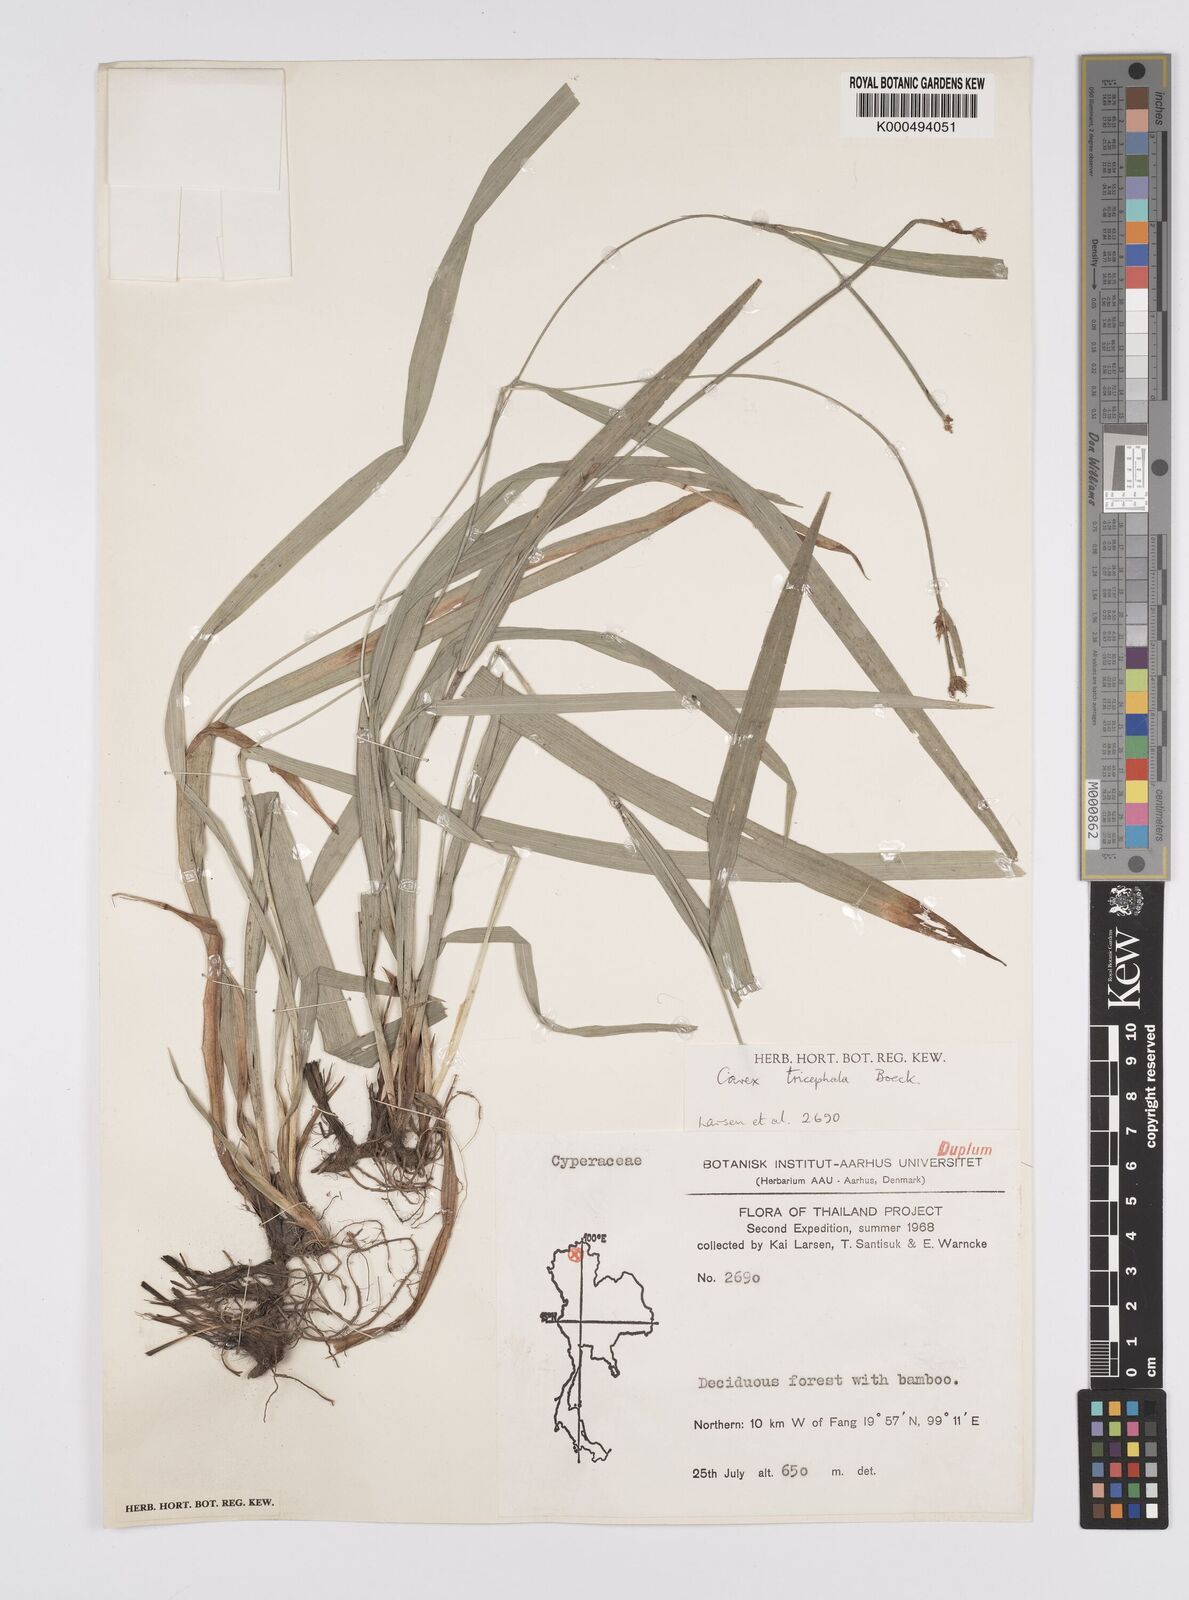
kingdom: Plantae
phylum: Tracheophyta
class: Liliopsida
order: Poales
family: Cyperaceae
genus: Carex
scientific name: Carex tricephala
